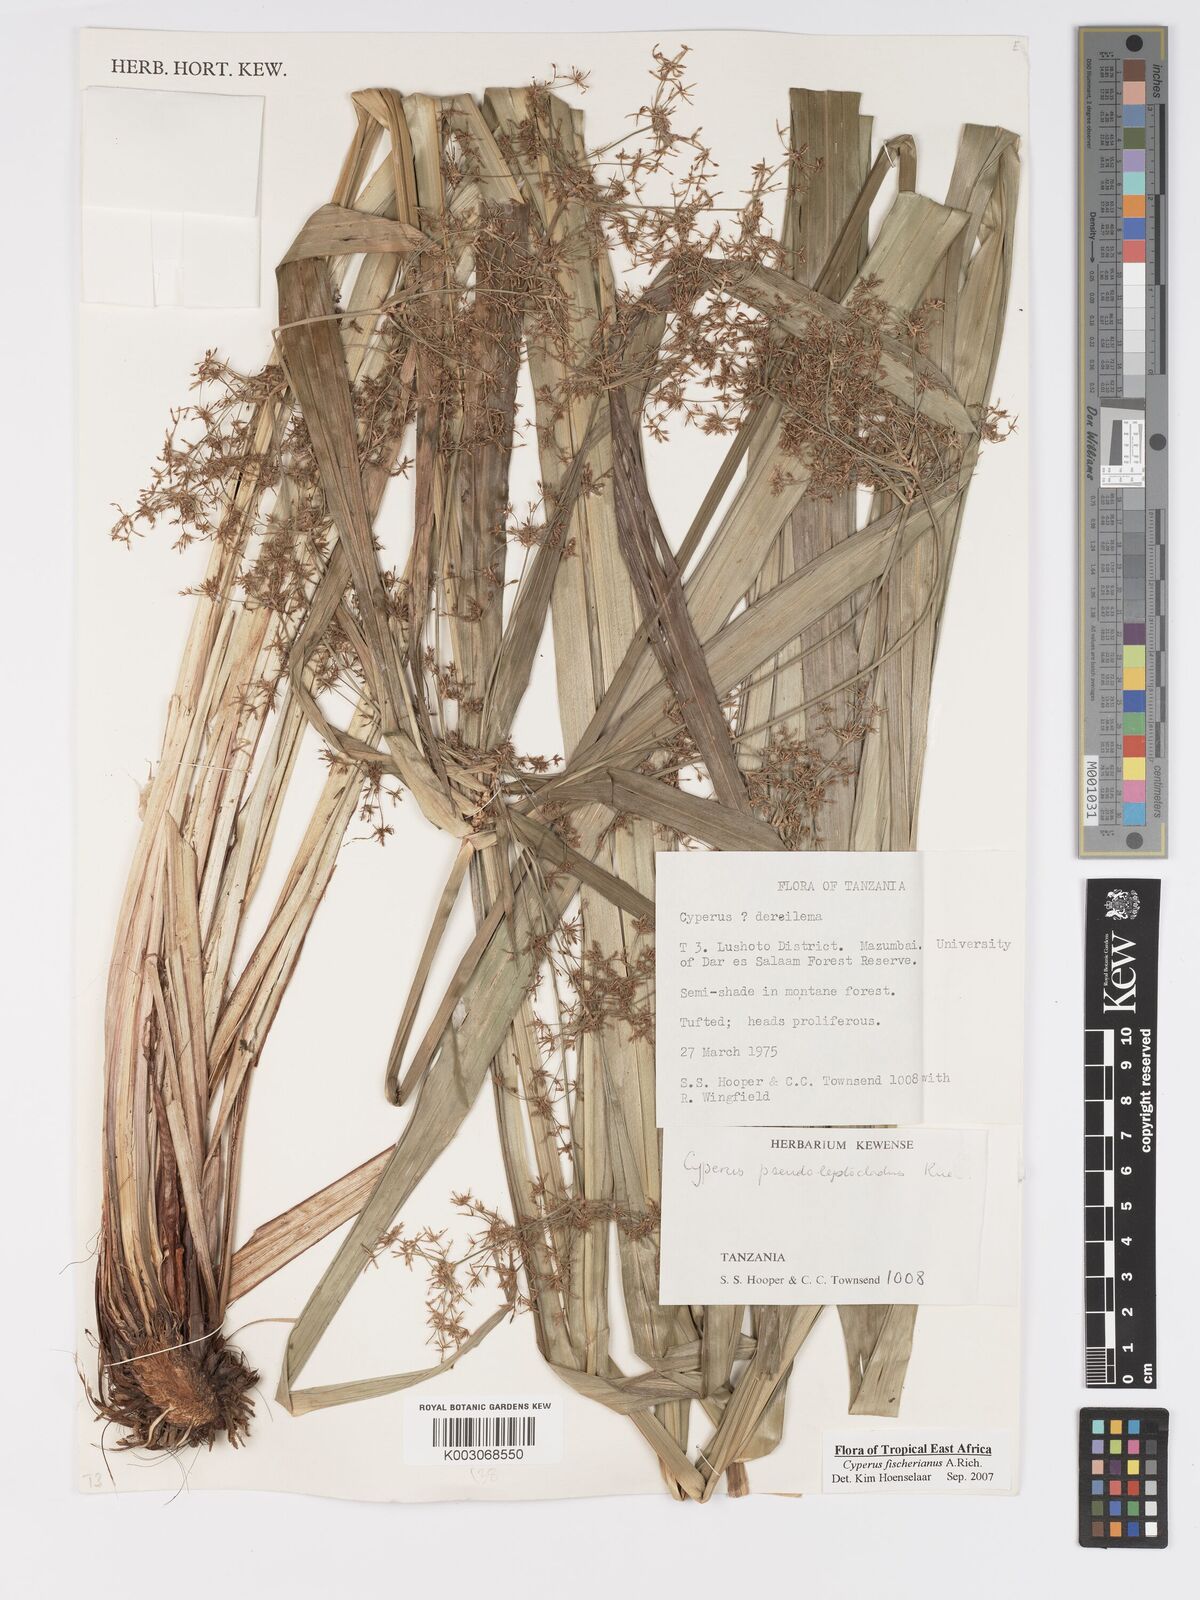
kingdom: Plantae
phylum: Tracheophyta
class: Liliopsida
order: Poales
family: Cyperaceae
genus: Cyperus
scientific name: Cyperus fischerianus
